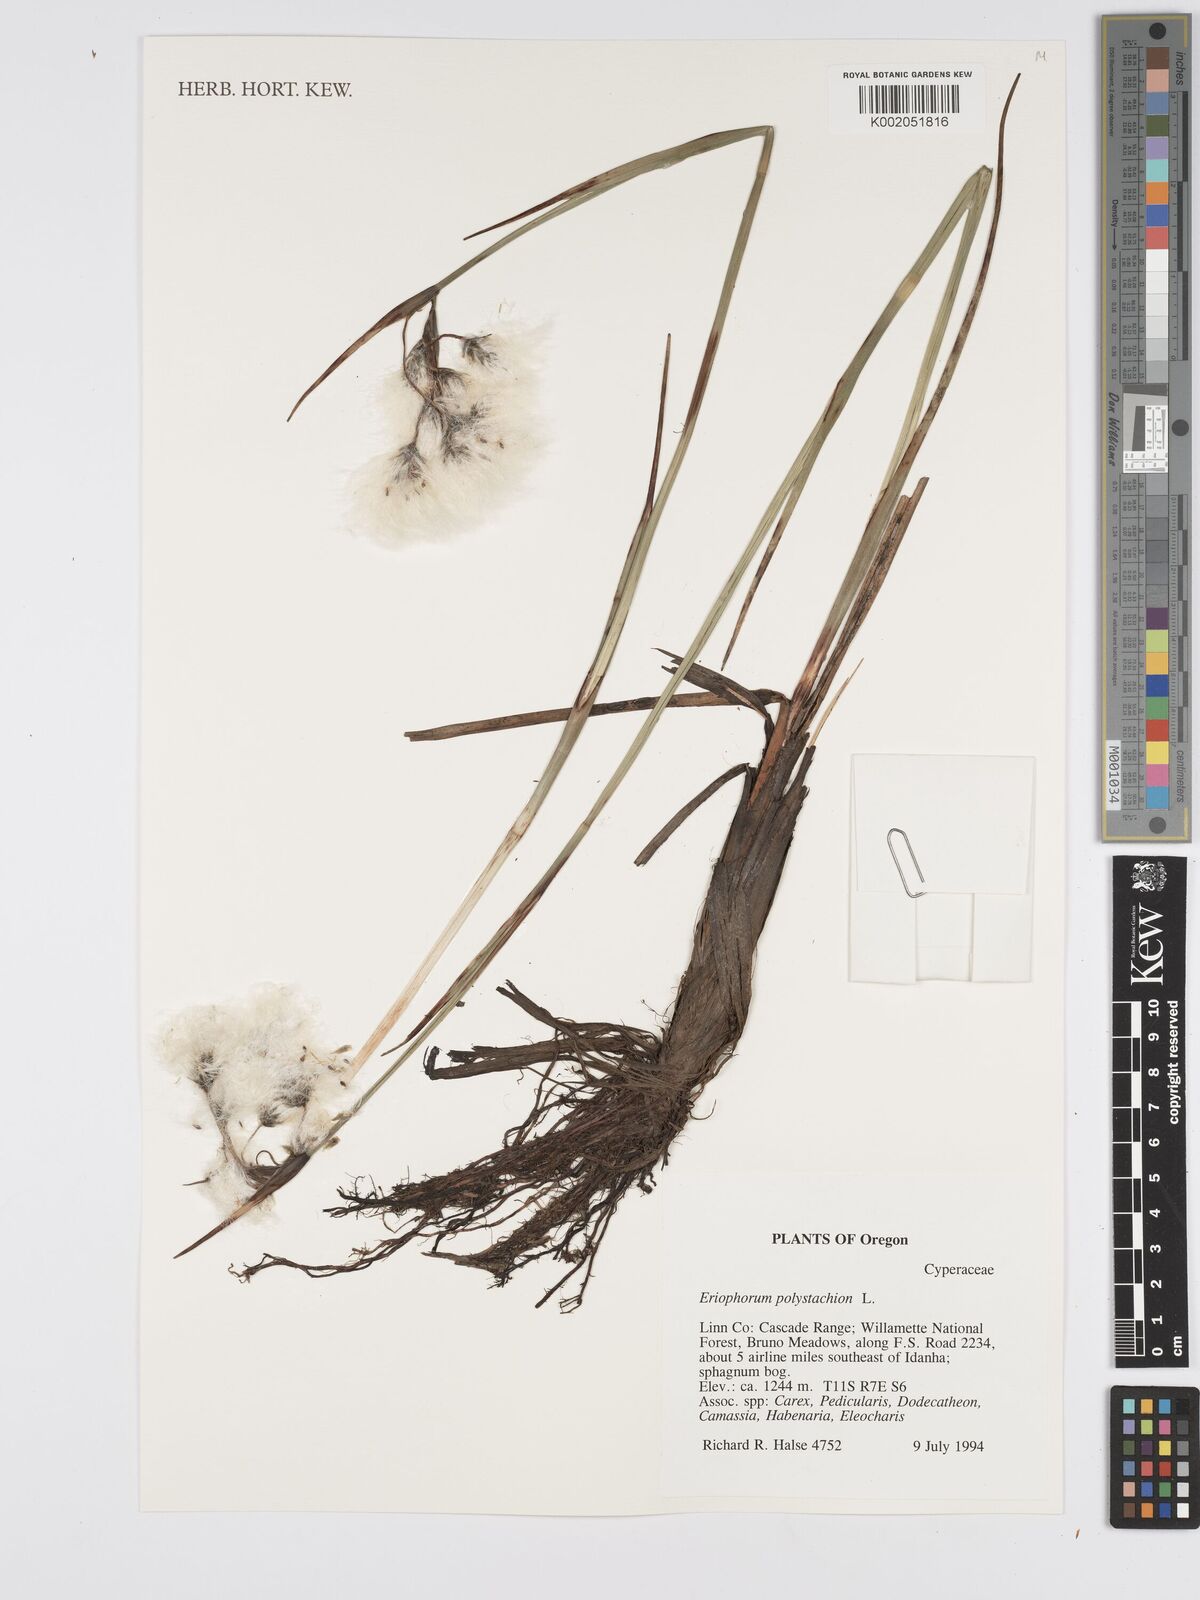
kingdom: Plantae
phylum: Tracheophyta
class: Liliopsida
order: Poales
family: Cyperaceae
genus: Eriophorum
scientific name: Eriophorum angustifolium
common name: Common cottongrass
